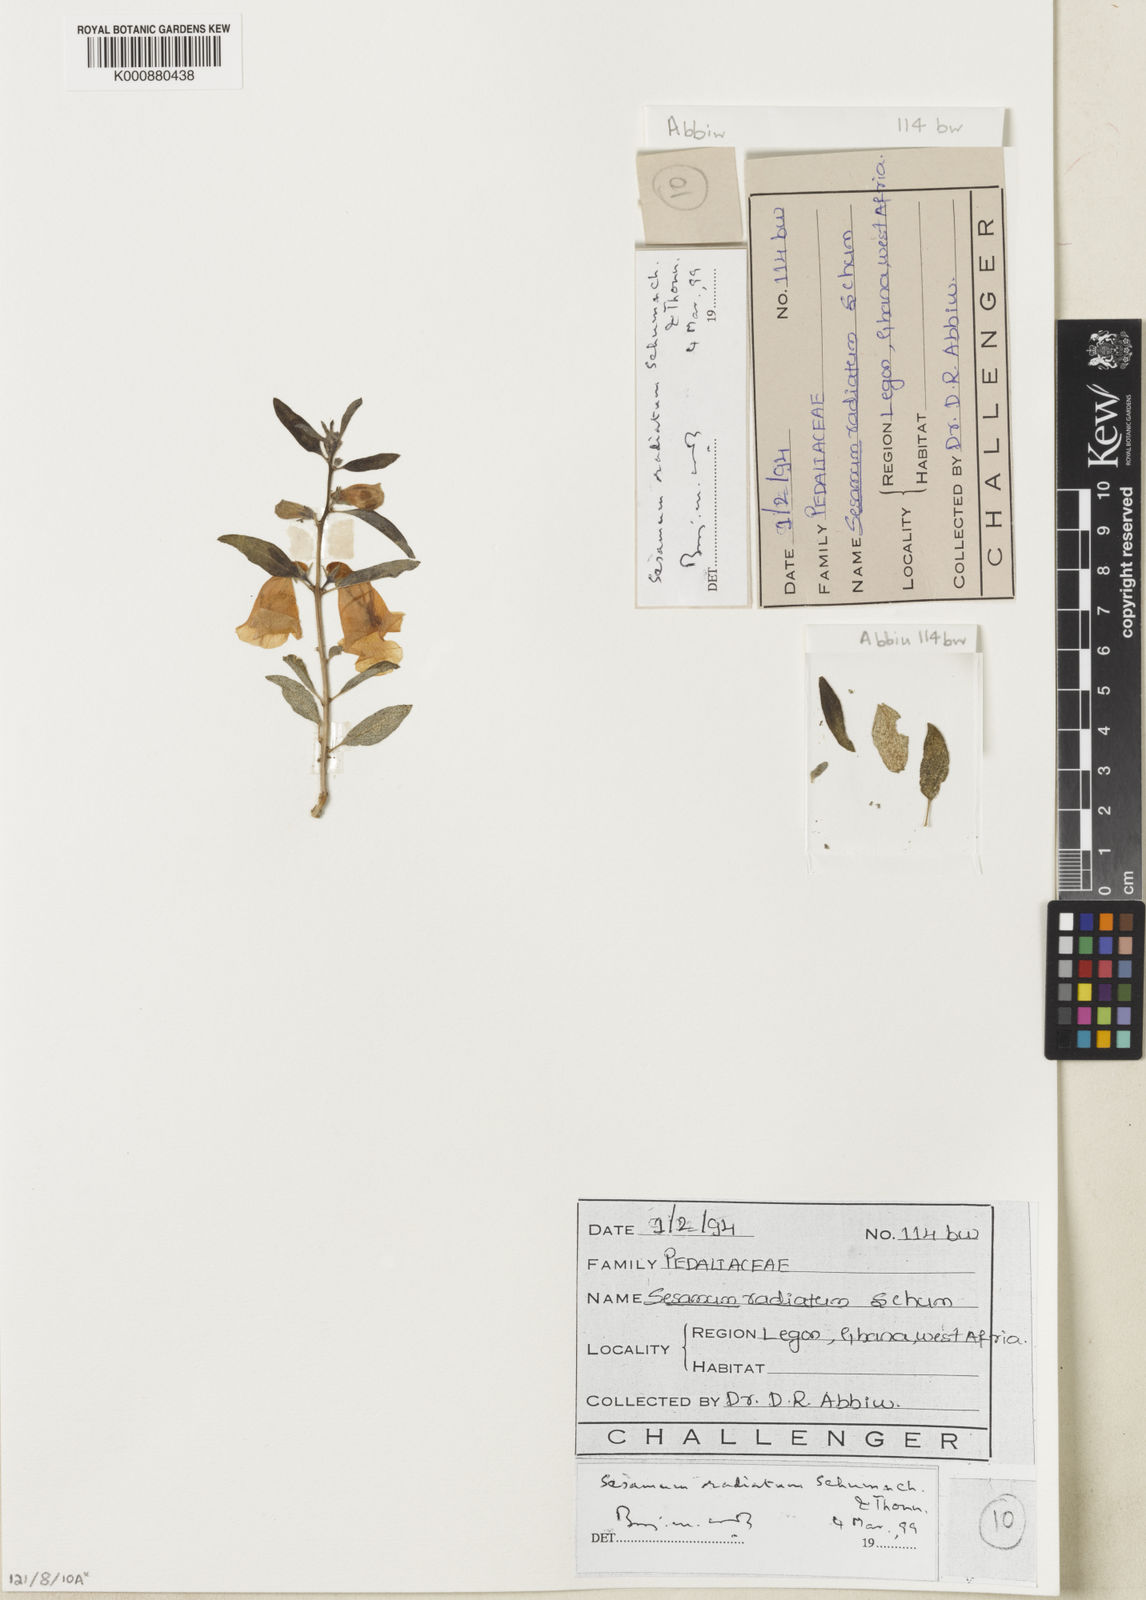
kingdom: Plantae
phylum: Tracheophyta
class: Magnoliopsida
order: Lamiales
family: Pedaliaceae
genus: Sesamum
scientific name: Sesamum
